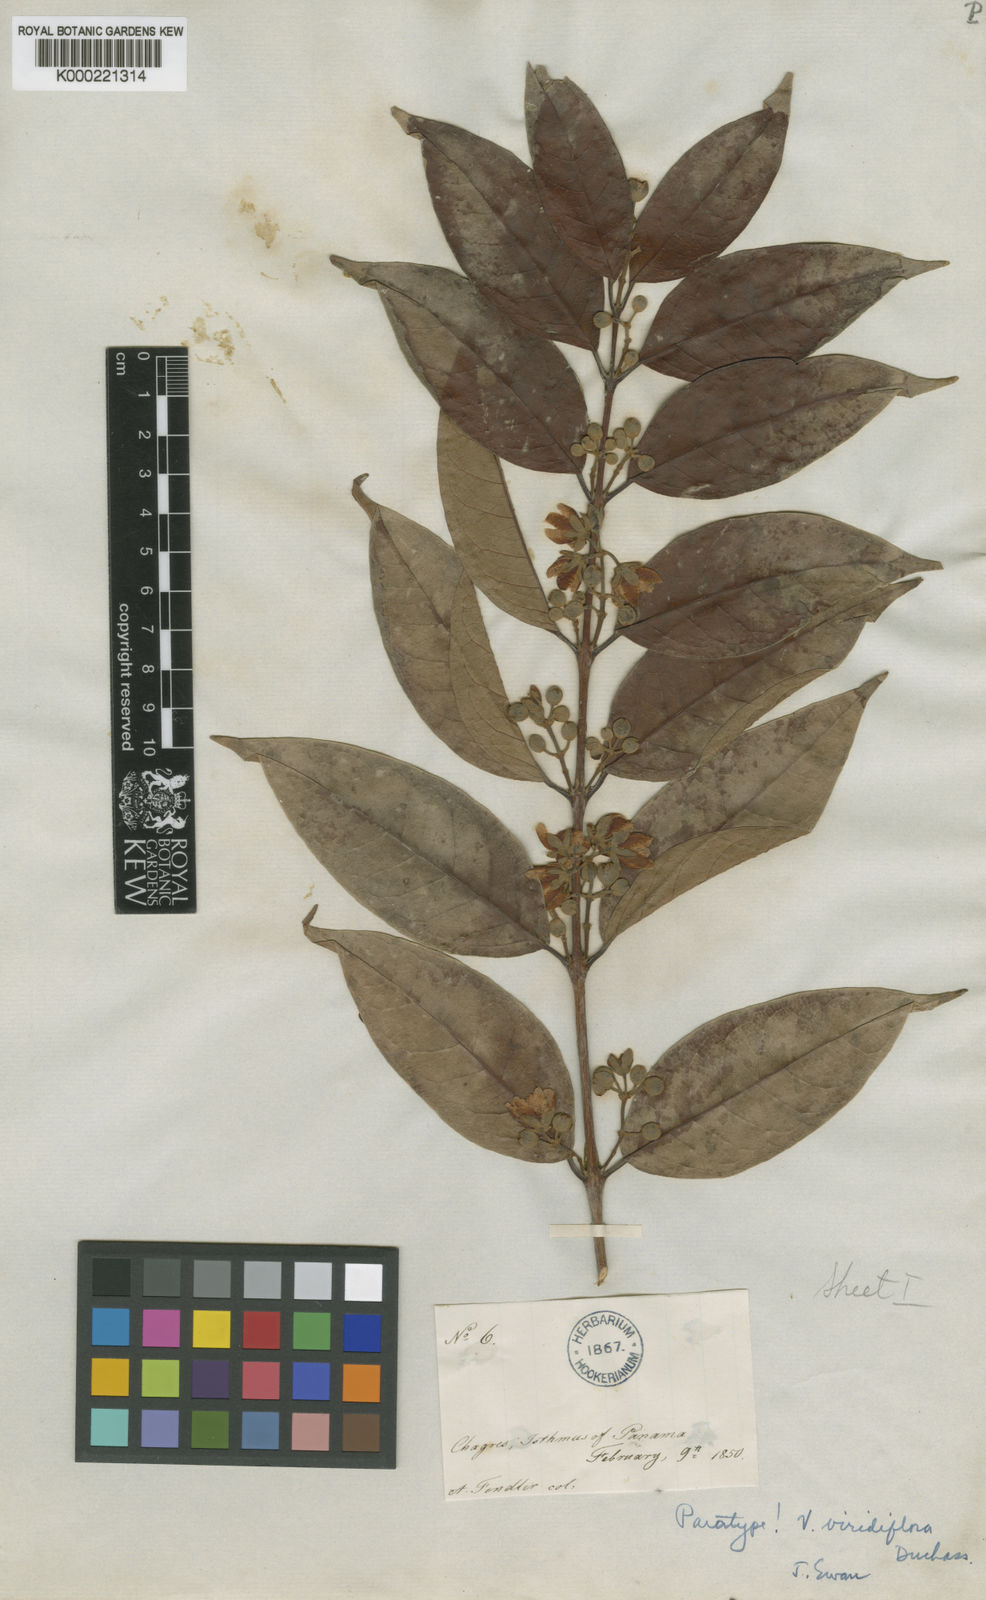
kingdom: Plantae
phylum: Tracheophyta
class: Magnoliopsida
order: Malpighiales
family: Hypericaceae
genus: Vismia
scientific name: Vismia billbergiana
